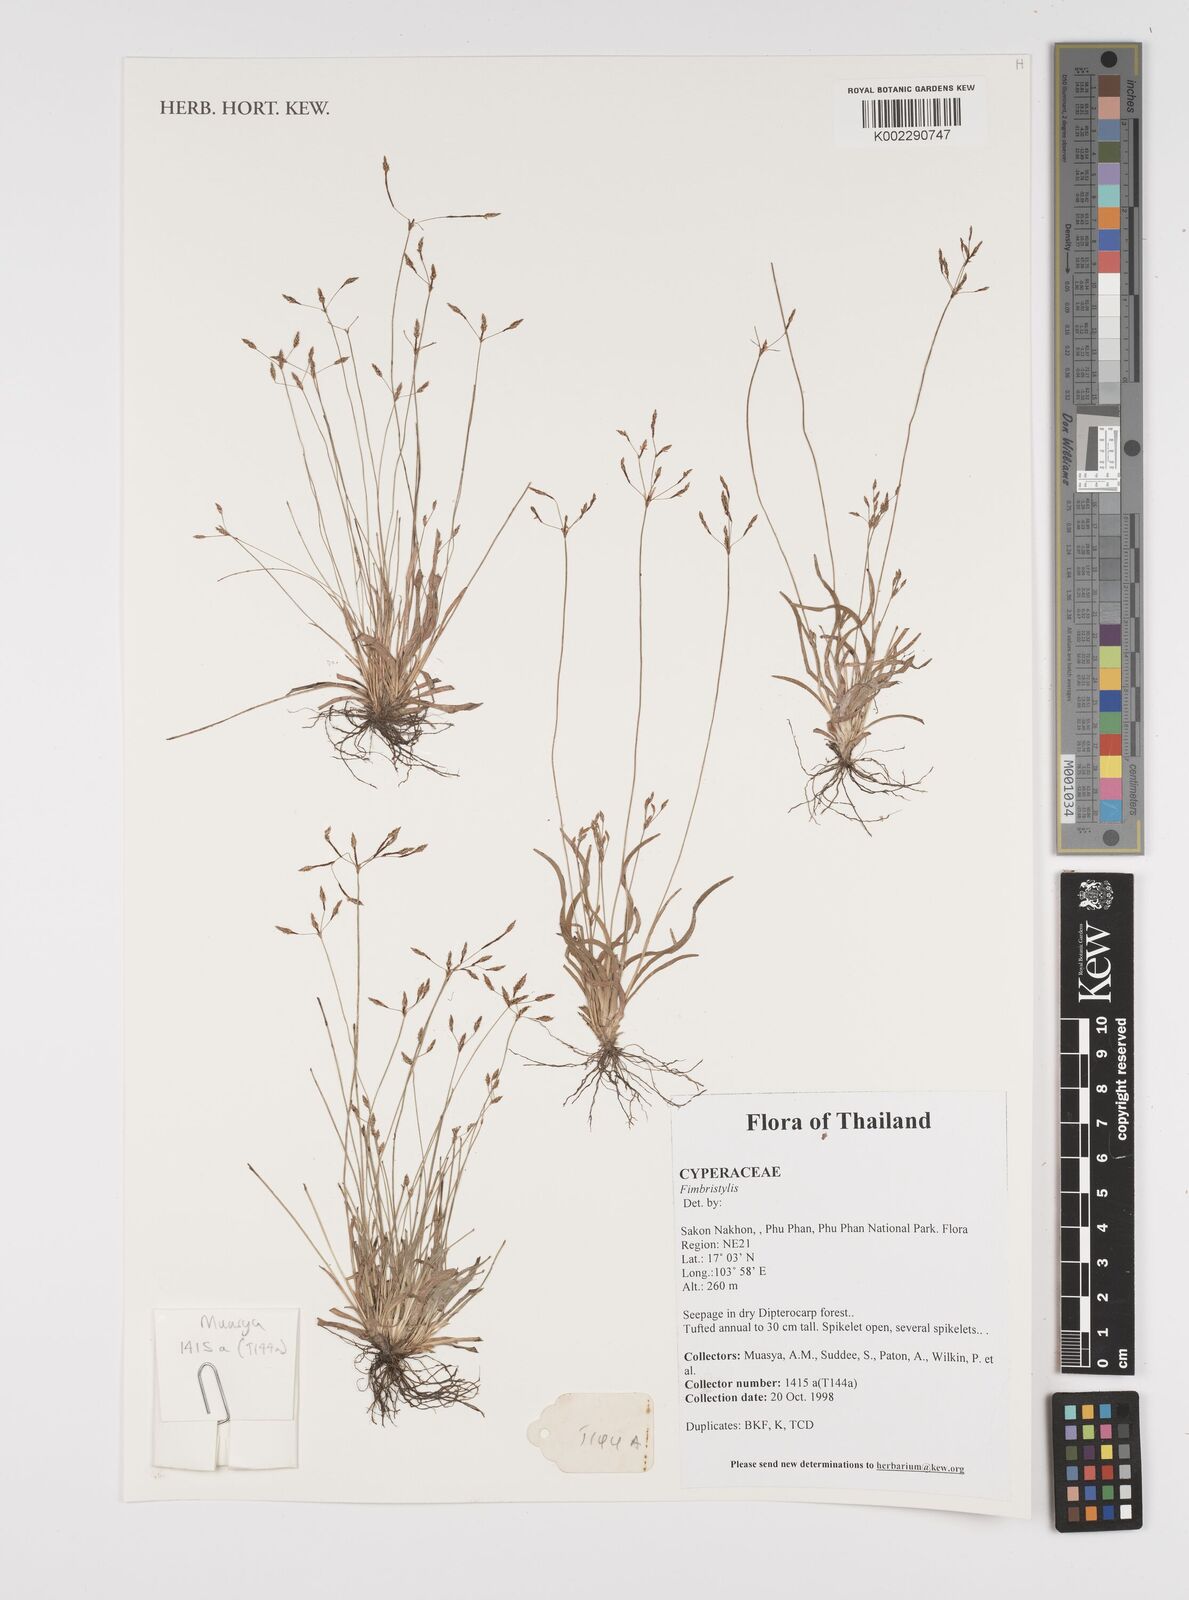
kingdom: Plantae
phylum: Tracheophyta
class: Liliopsida
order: Poales
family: Cyperaceae
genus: Fimbristylis
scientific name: Fimbristylis
